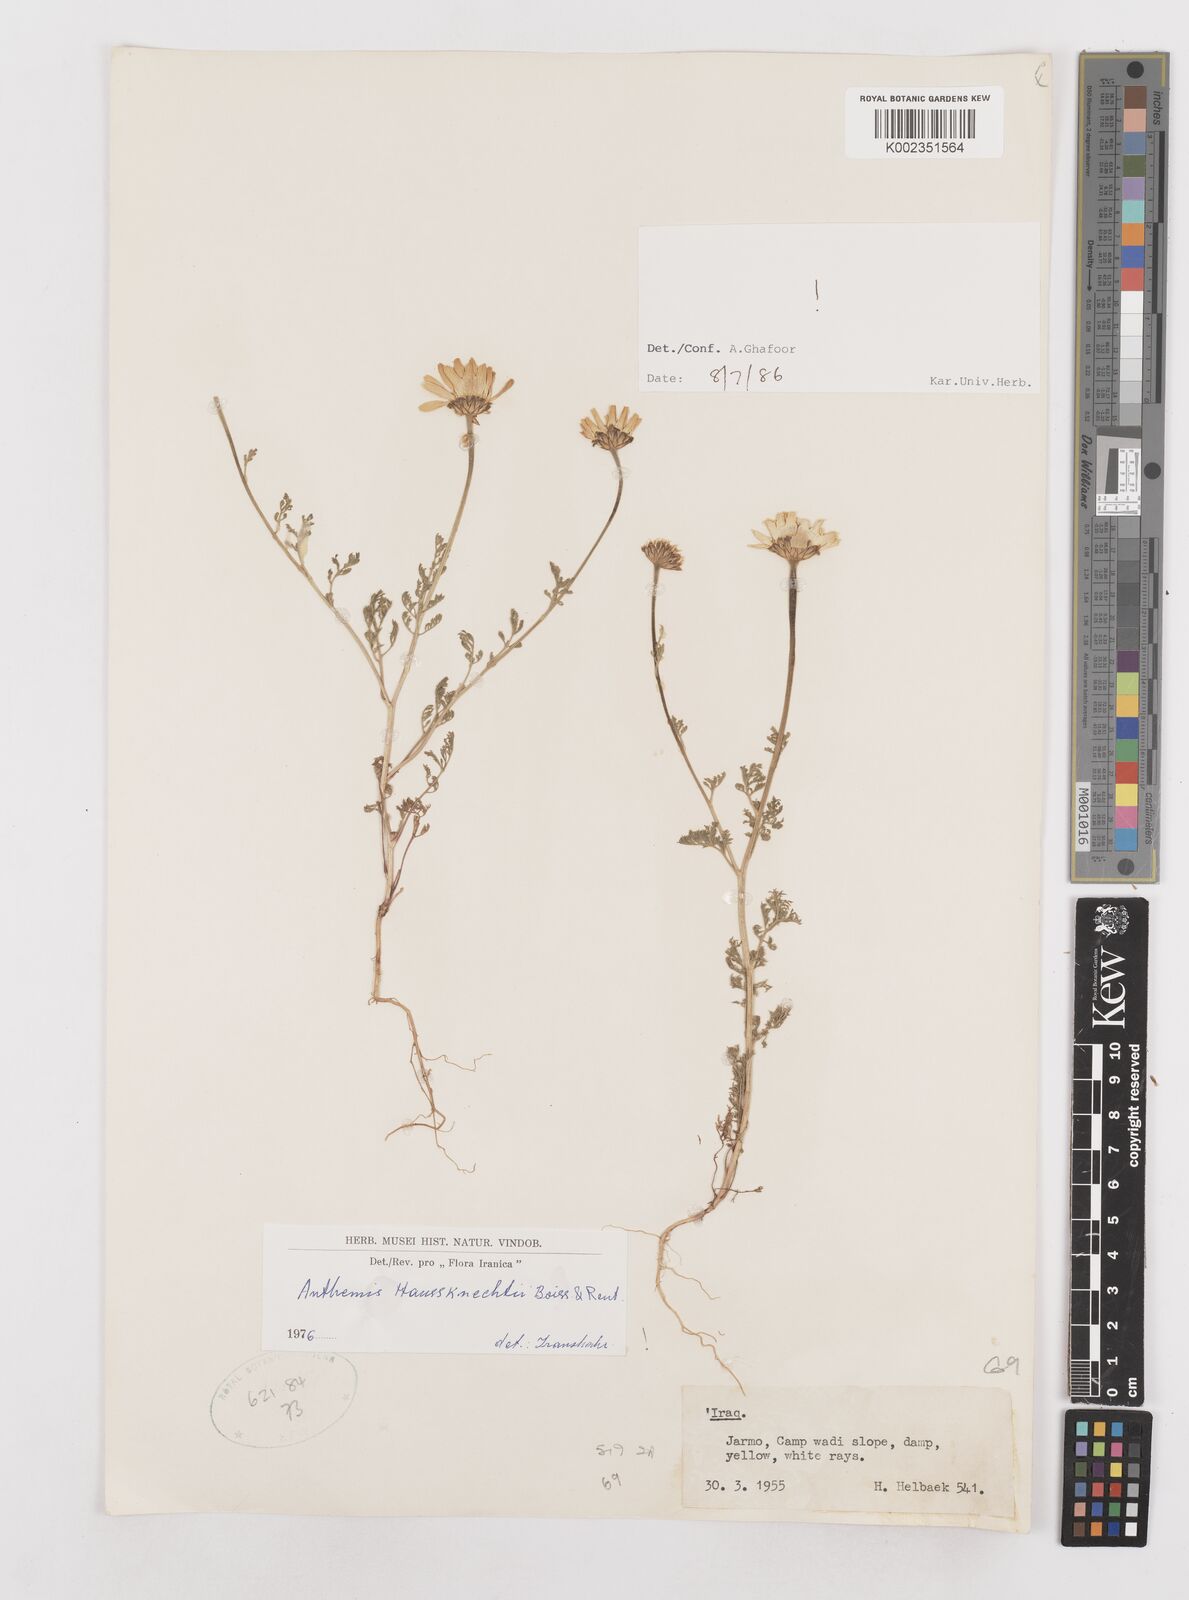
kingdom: Plantae
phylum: Tracheophyta
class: Magnoliopsida
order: Asterales
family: Asteraceae
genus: Anthemis
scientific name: Anthemis haussknechtii
